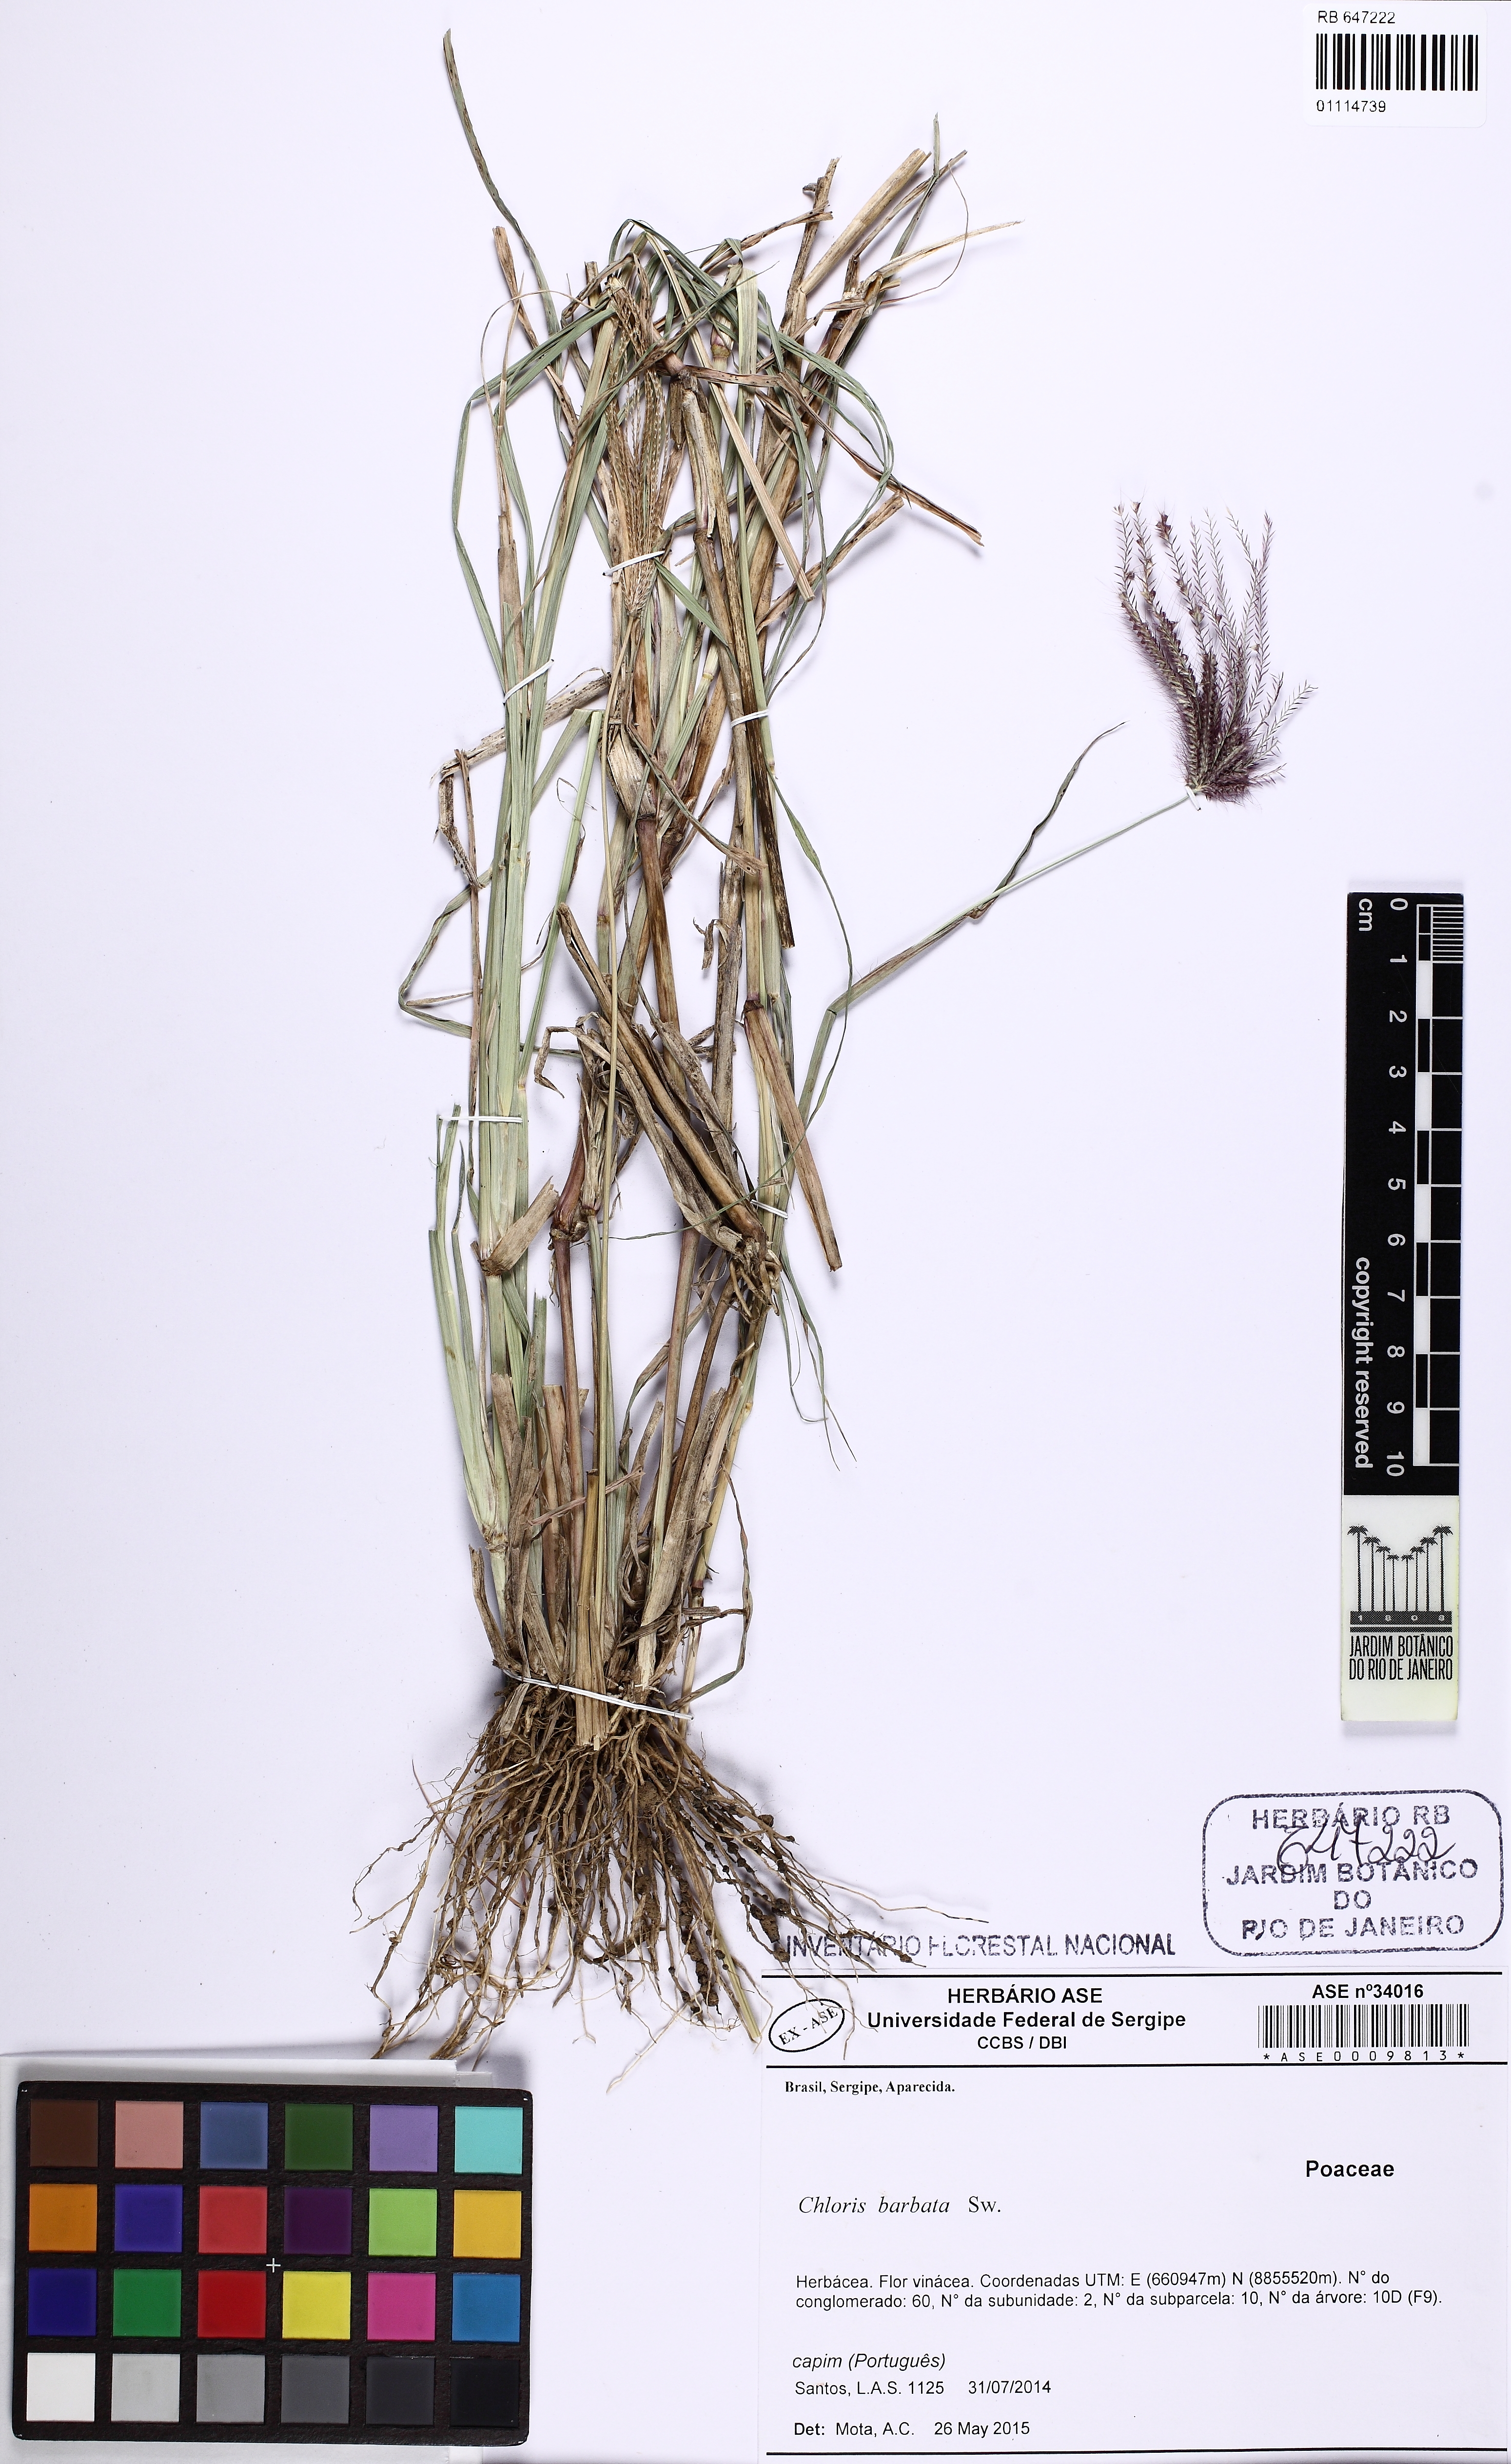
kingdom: Plantae
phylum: Tracheophyta
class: Liliopsida
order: Poales
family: Poaceae
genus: Chloris
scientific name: Chloris barbata
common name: Swollen fingergrass
